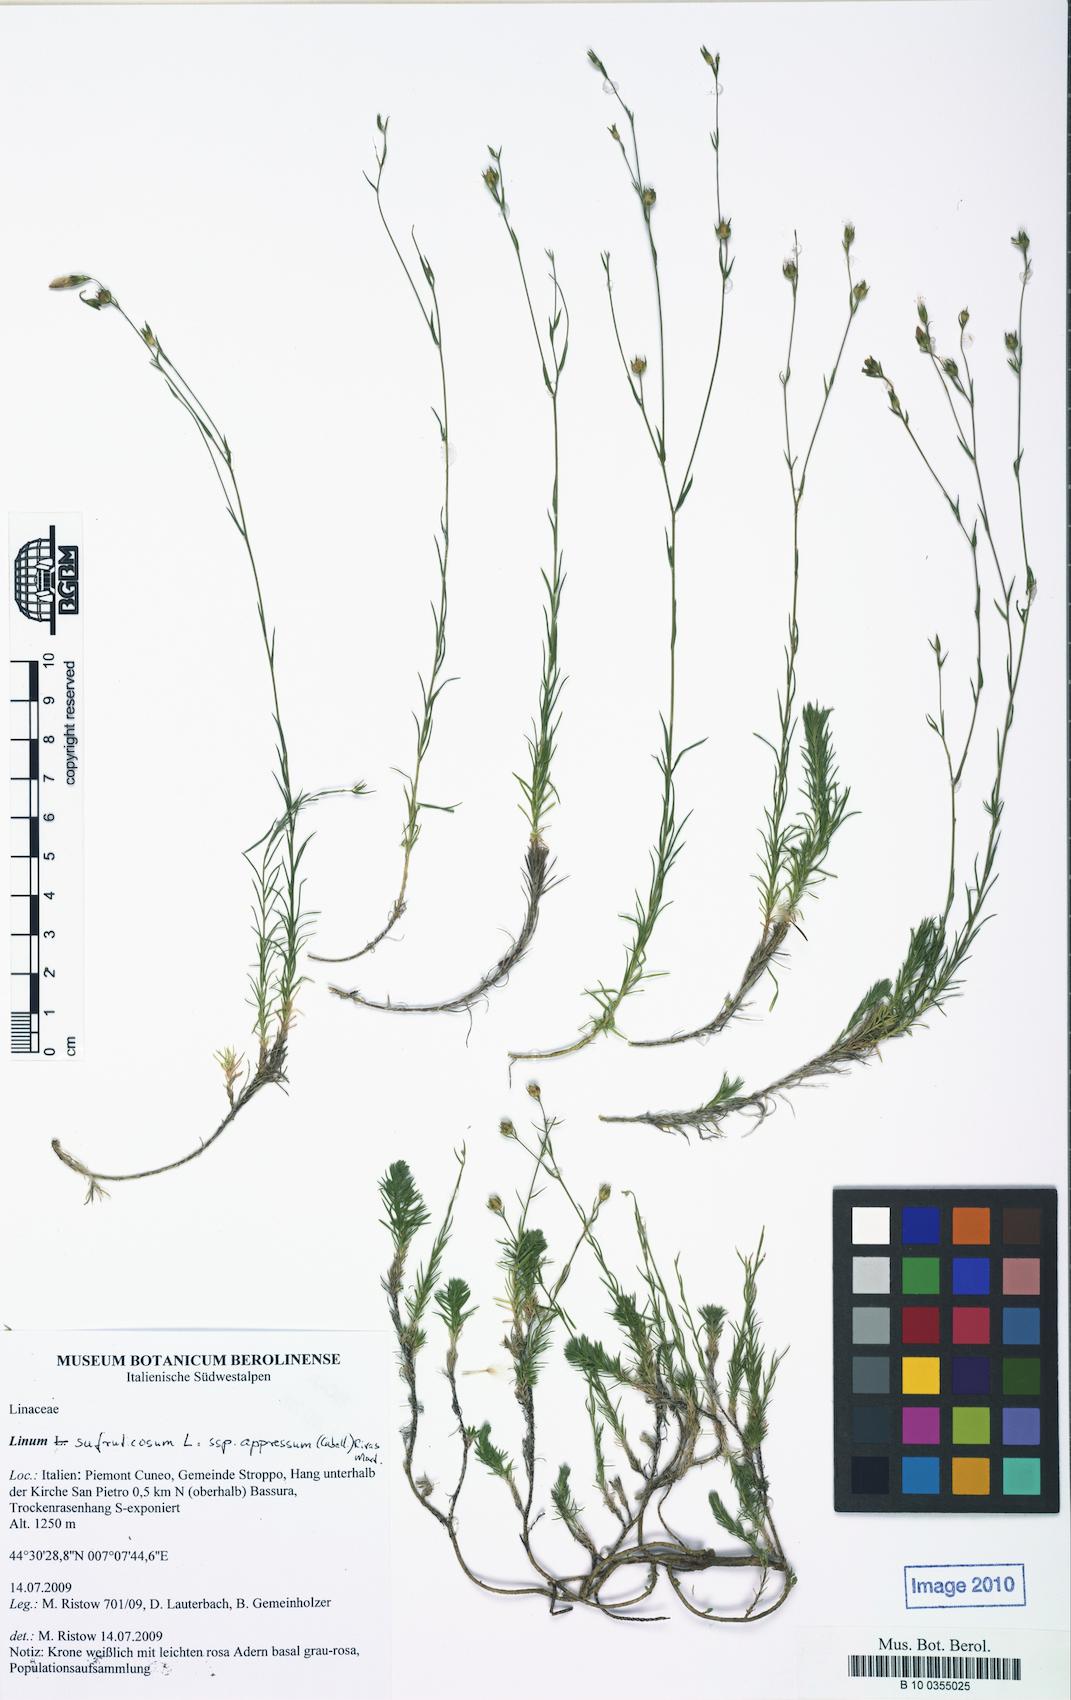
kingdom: Plantae
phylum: Tracheophyta
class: Magnoliopsida
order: Malpighiales
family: Linaceae
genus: Linum
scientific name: Linum appressum
